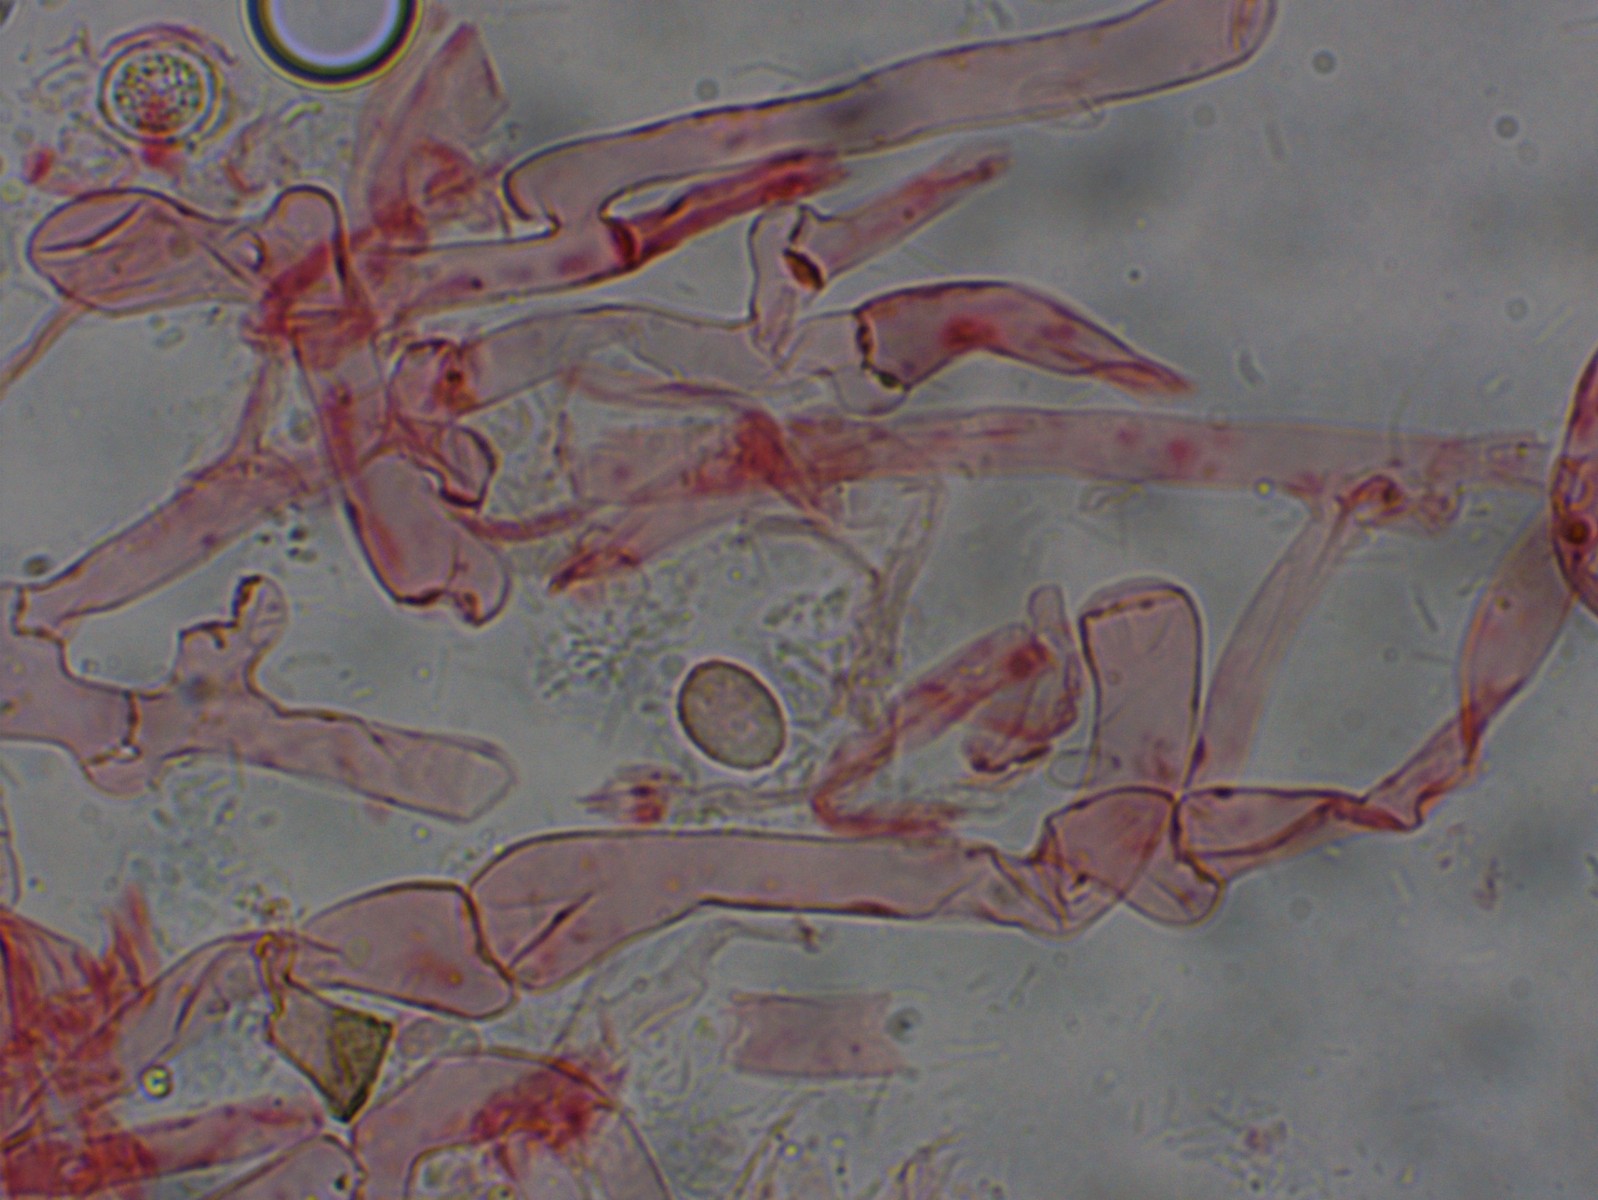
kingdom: Fungi
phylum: Basidiomycota
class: Agaricomycetes
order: Cantharellales
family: Hydnaceae
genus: Sistotrema
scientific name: Sistotrema sernanderi
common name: sur kroneskorpe
